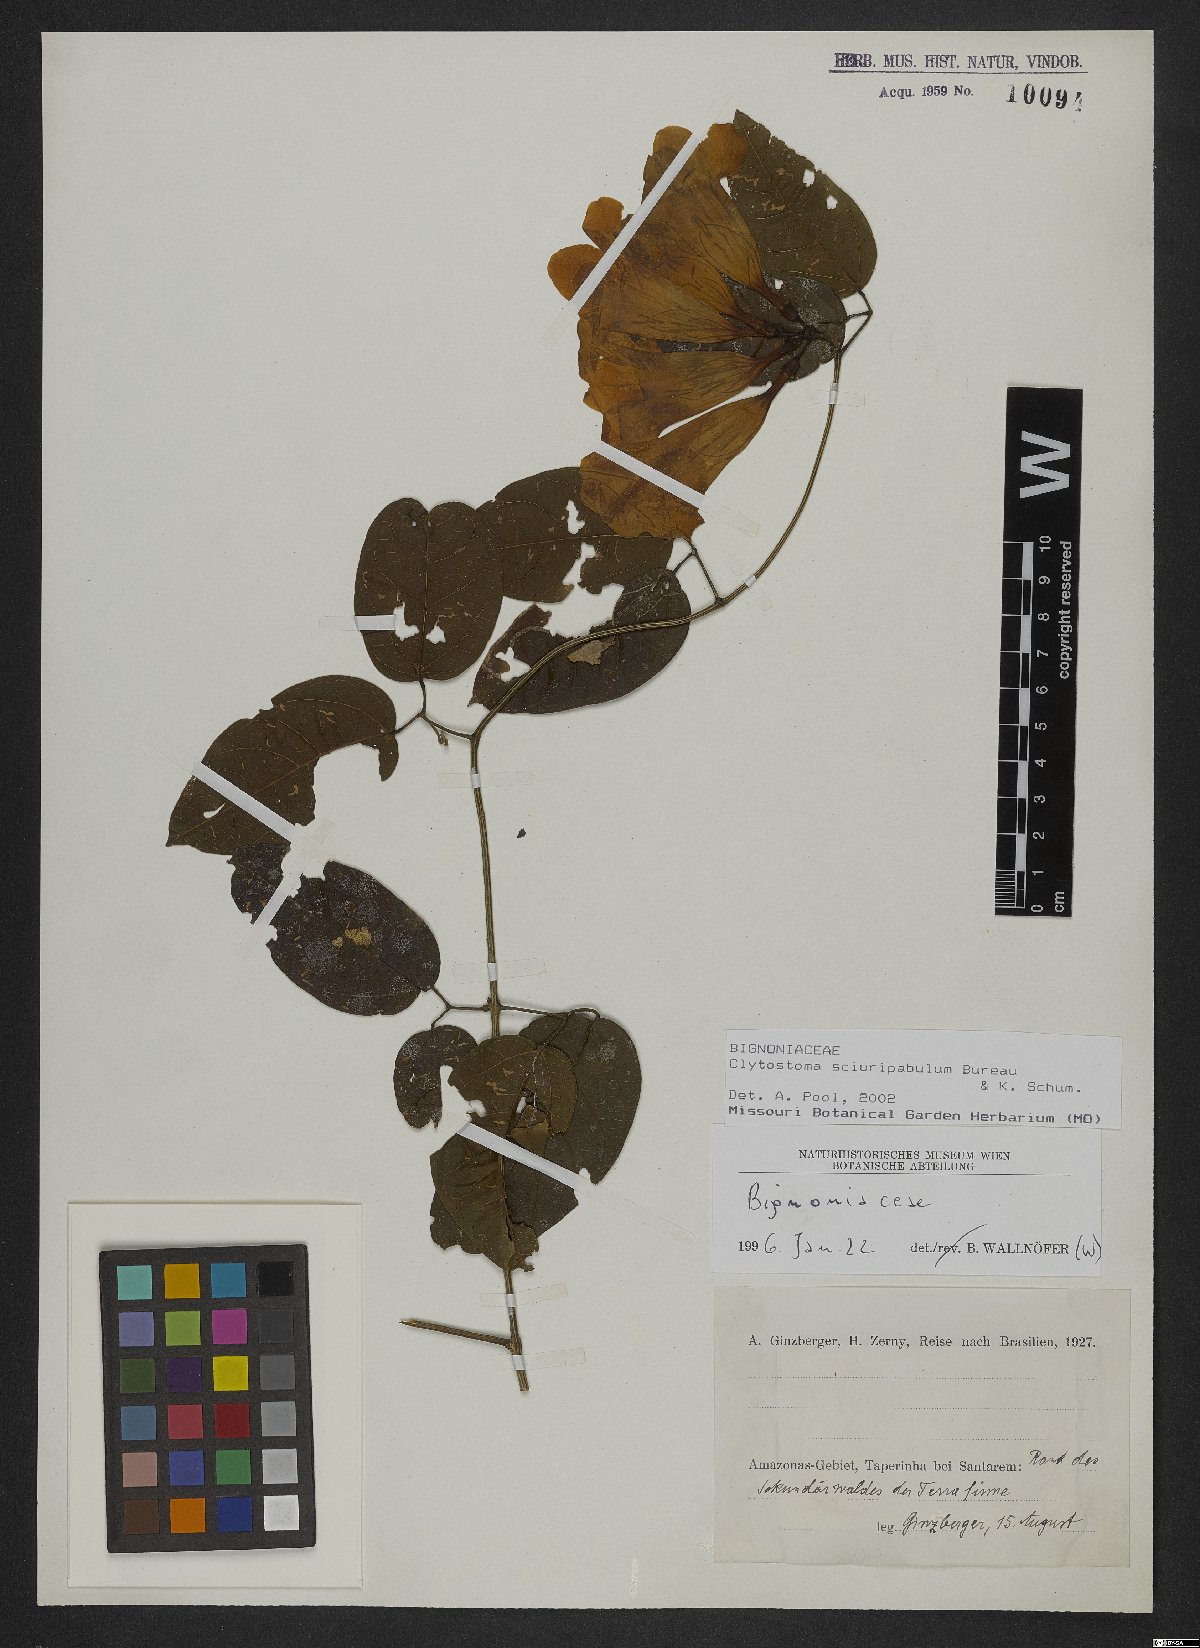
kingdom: Plantae
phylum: Tracheophyta
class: Magnoliopsida
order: Lamiales
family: Bignoniaceae
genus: Bignonia
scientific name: Bignonia sciruipabula
